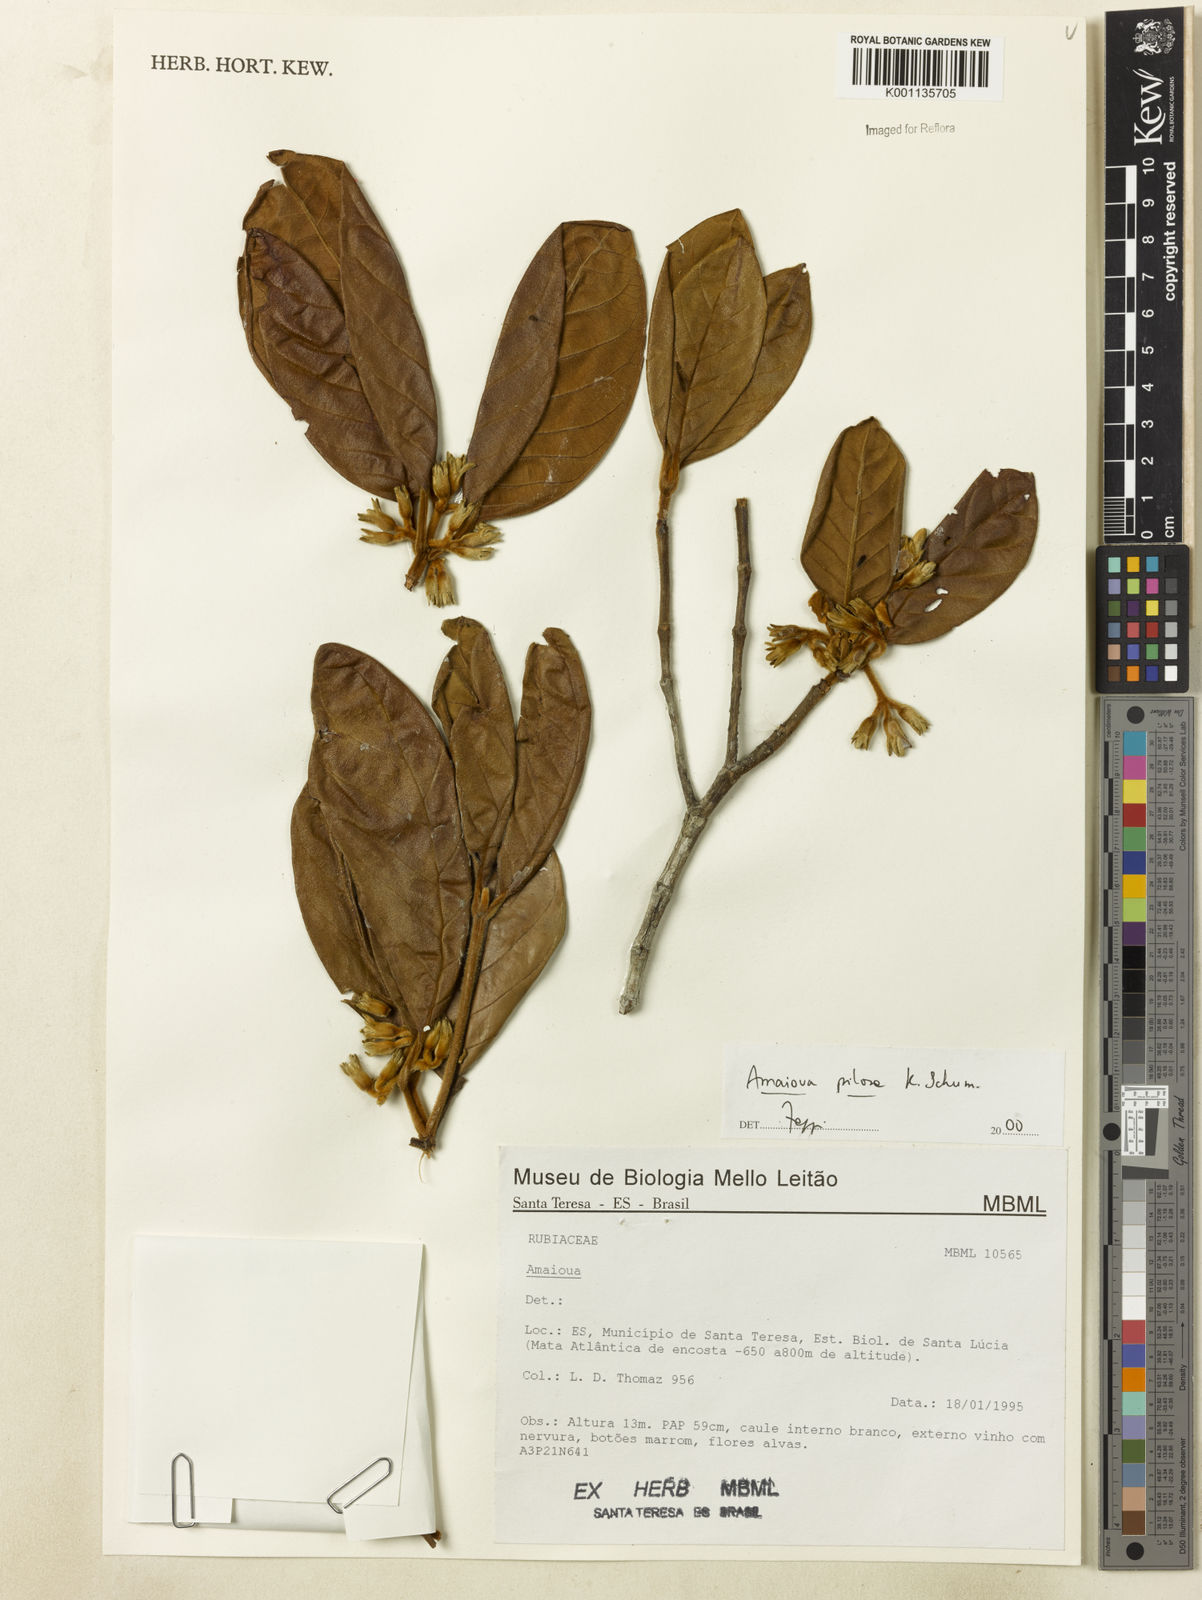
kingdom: Plantae
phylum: Tracheophyta
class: Magnoliopsida
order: Gentianales
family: Rubiaceae
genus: Amaioua
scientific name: Amaioua pilosa
